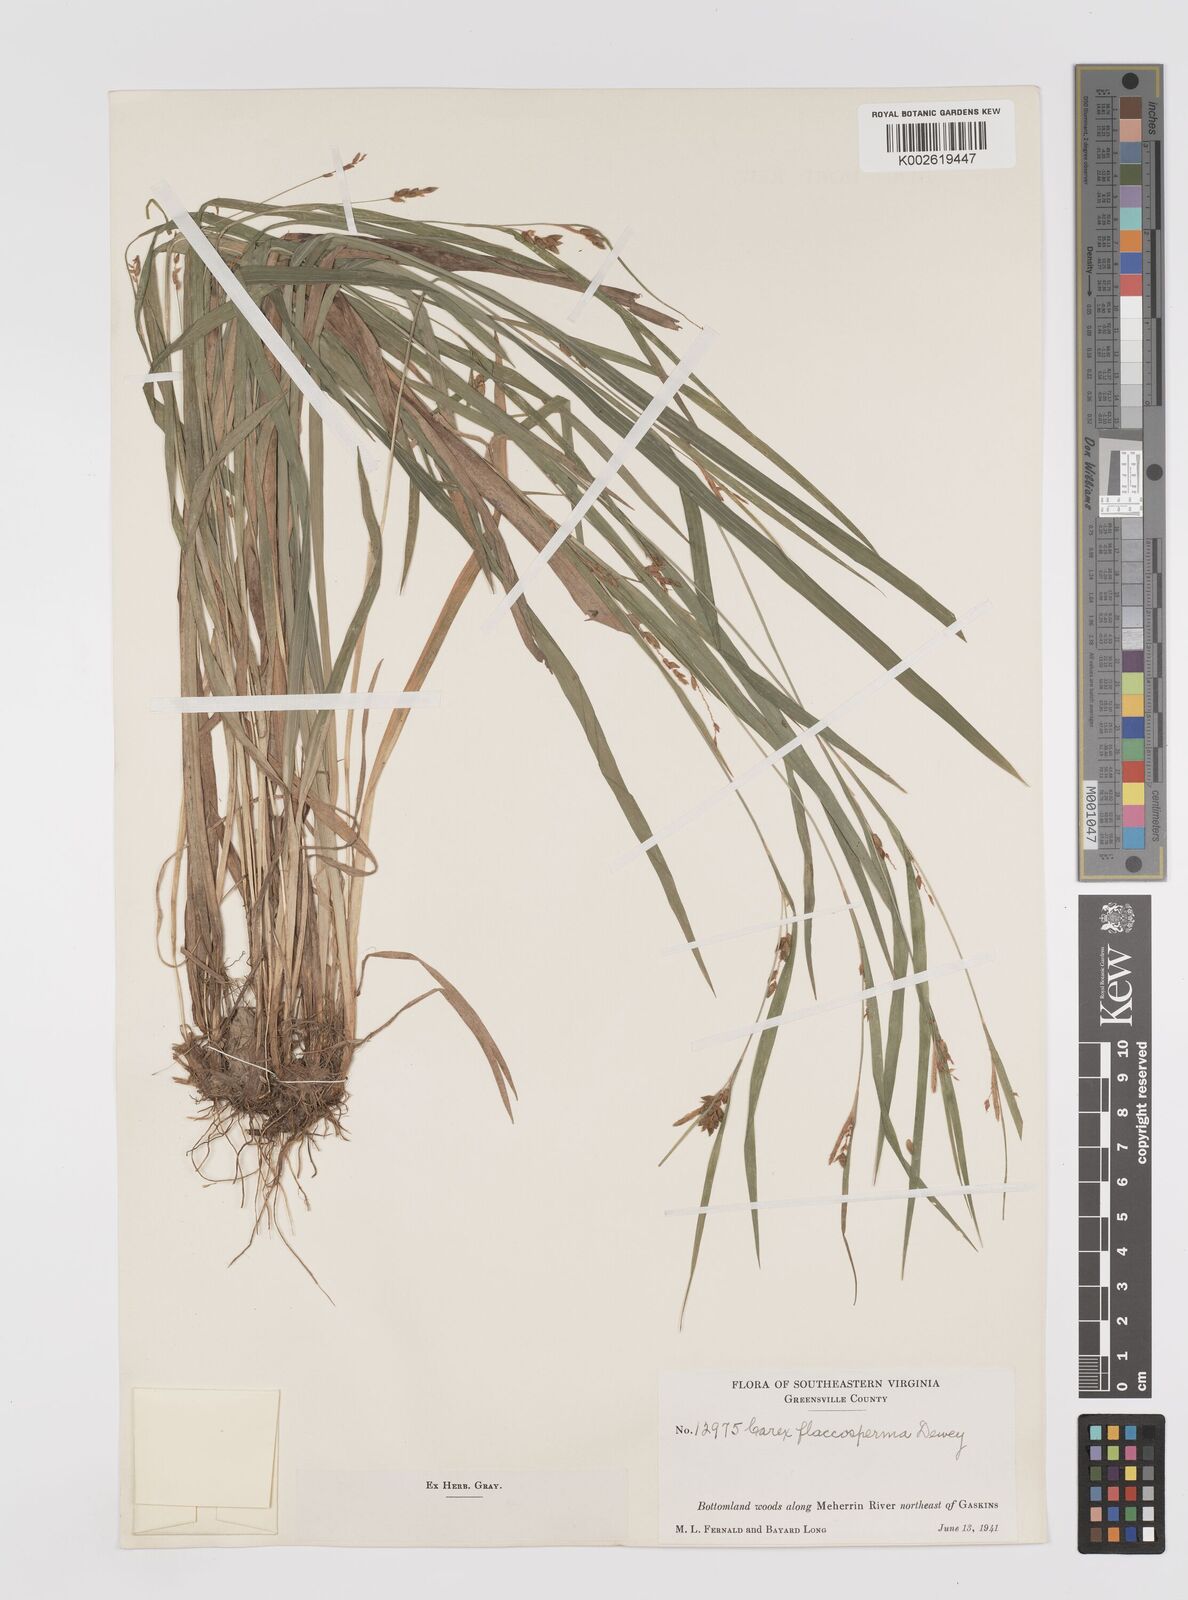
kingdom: Plantae
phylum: Tracheophyta
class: Liliopsida
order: Poales
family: Cyperaceae
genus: Carex
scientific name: Carex flaccosperma
